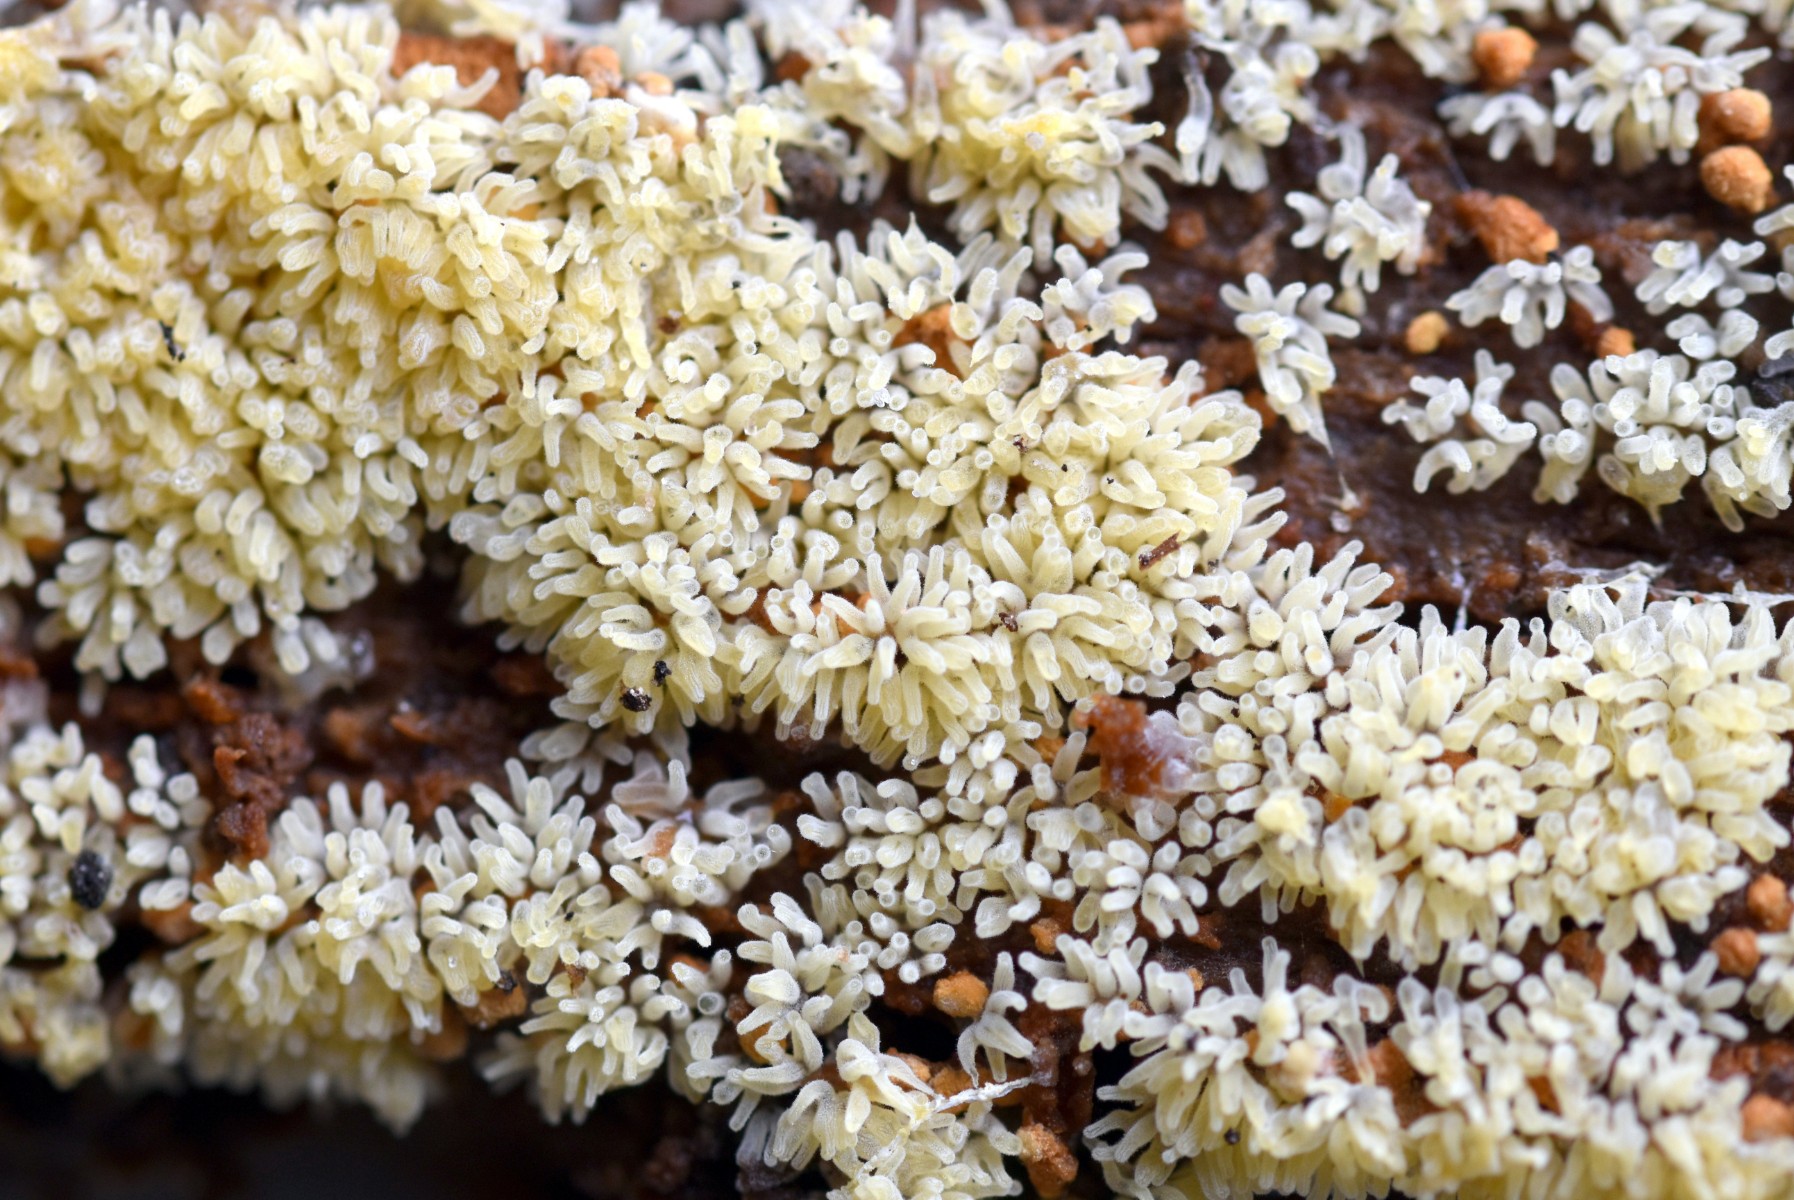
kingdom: Protozoa
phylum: Mycetozoa
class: Protosteliomycetes
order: Ceratiomyxales
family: Ceratiomyxaceae
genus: Ceratiomyxa
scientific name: Ceratiomyxa fruticulosa
